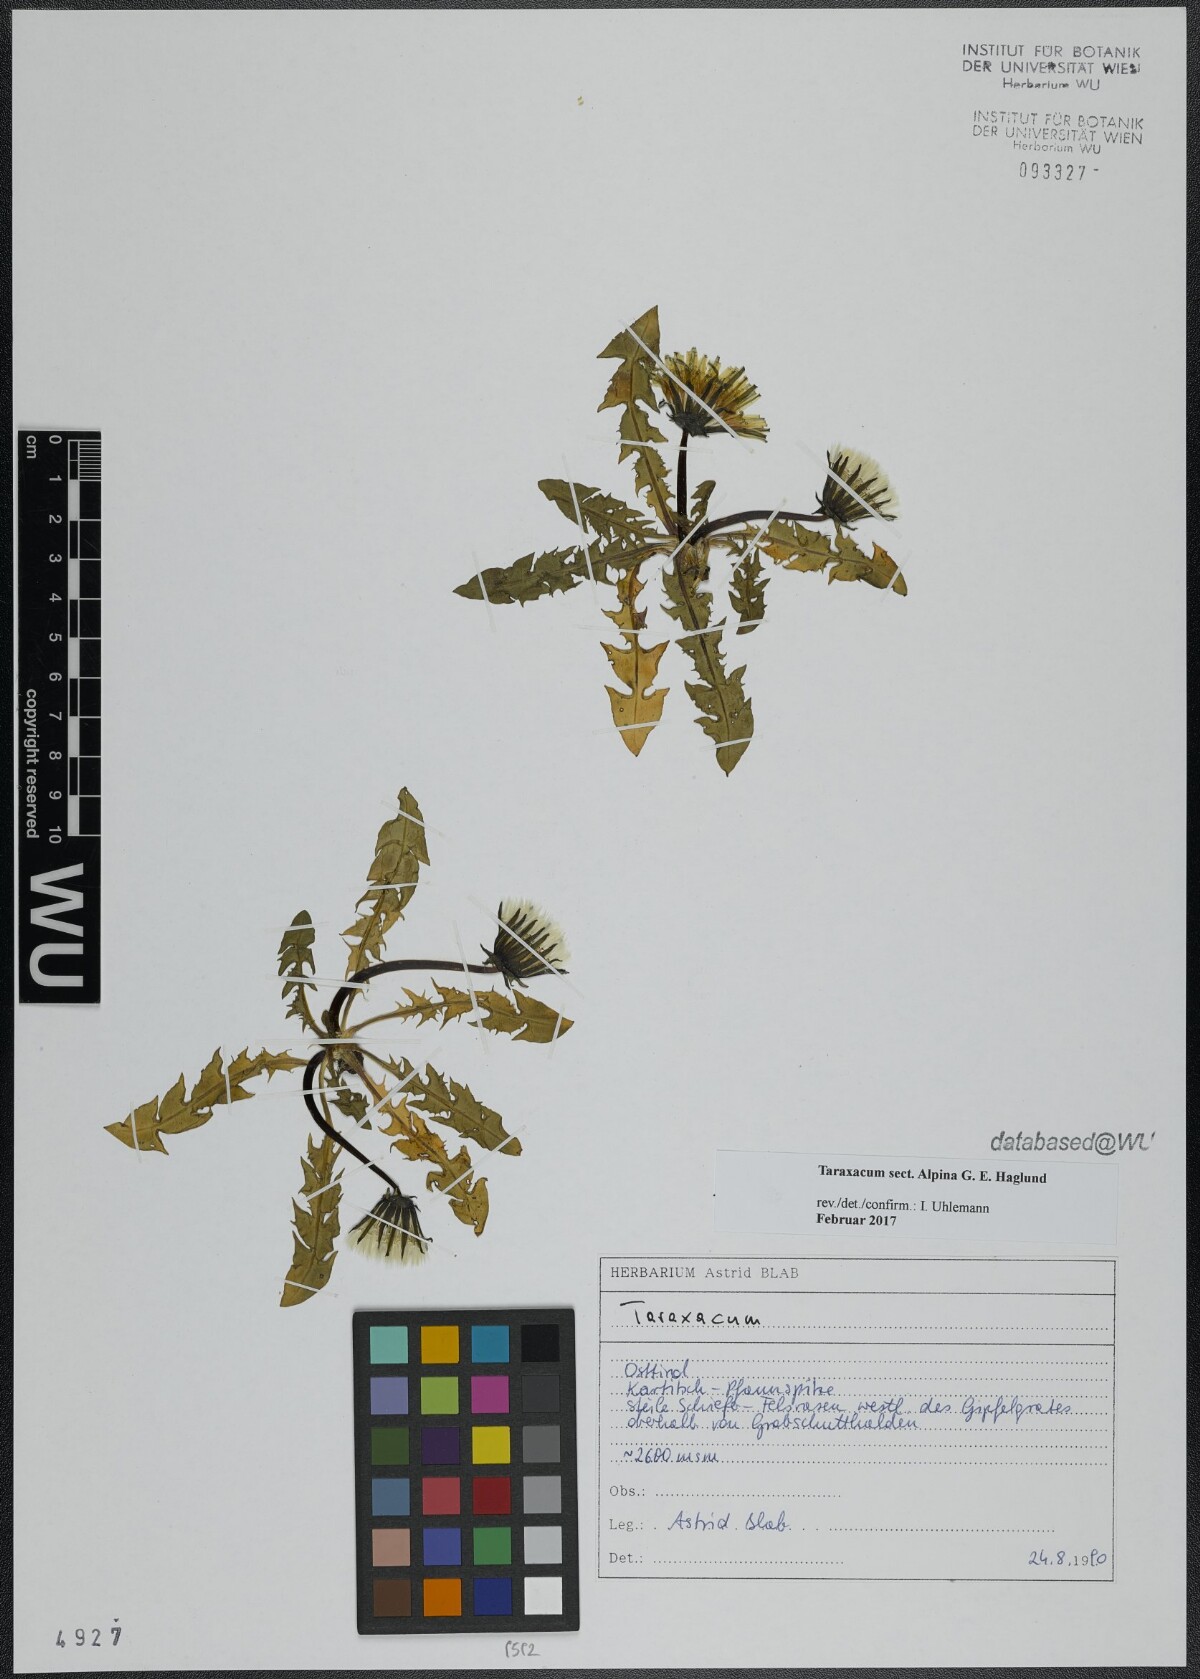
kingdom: Plantae
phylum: Tracheophyta
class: Magnoliopsida
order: Asterales
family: Asteraceae
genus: Taraxacum
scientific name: Taraxacum
